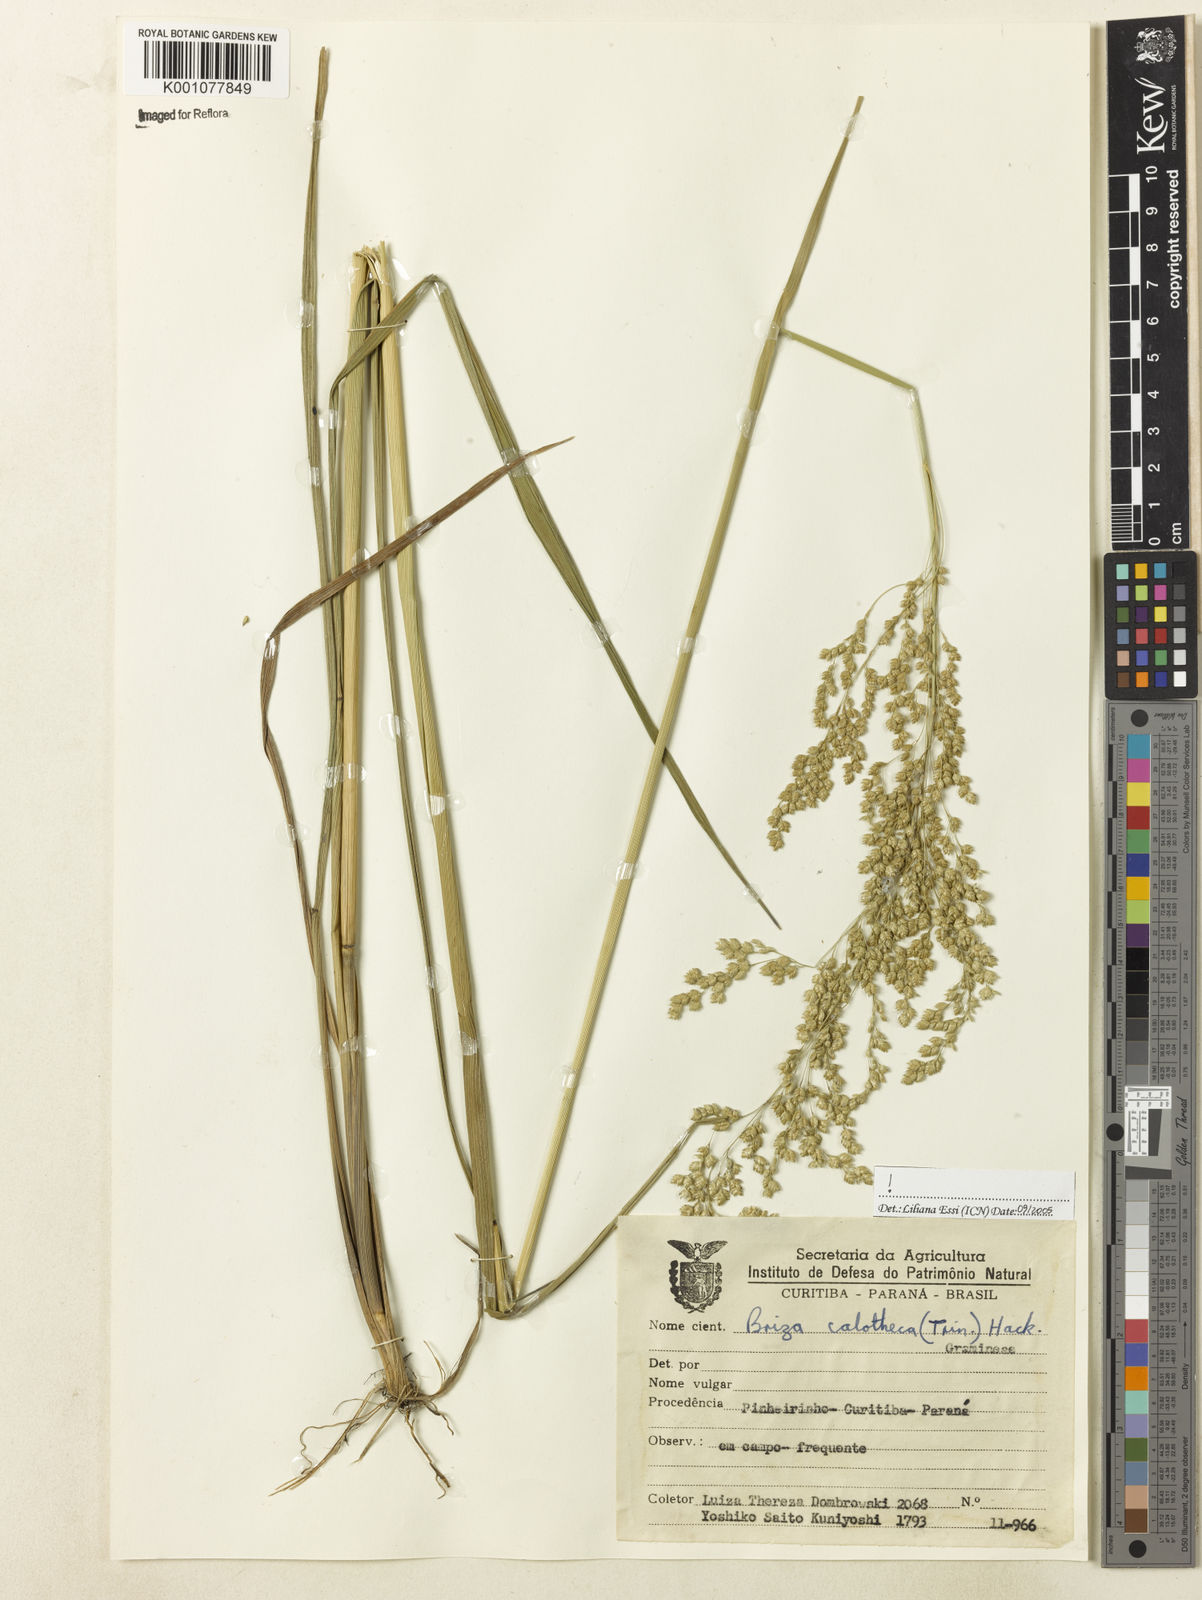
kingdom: Plantae
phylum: Tracheophyta
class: Liliopsida
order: Poales
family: Poaceae
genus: Poidium
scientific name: Poidium calotheca
